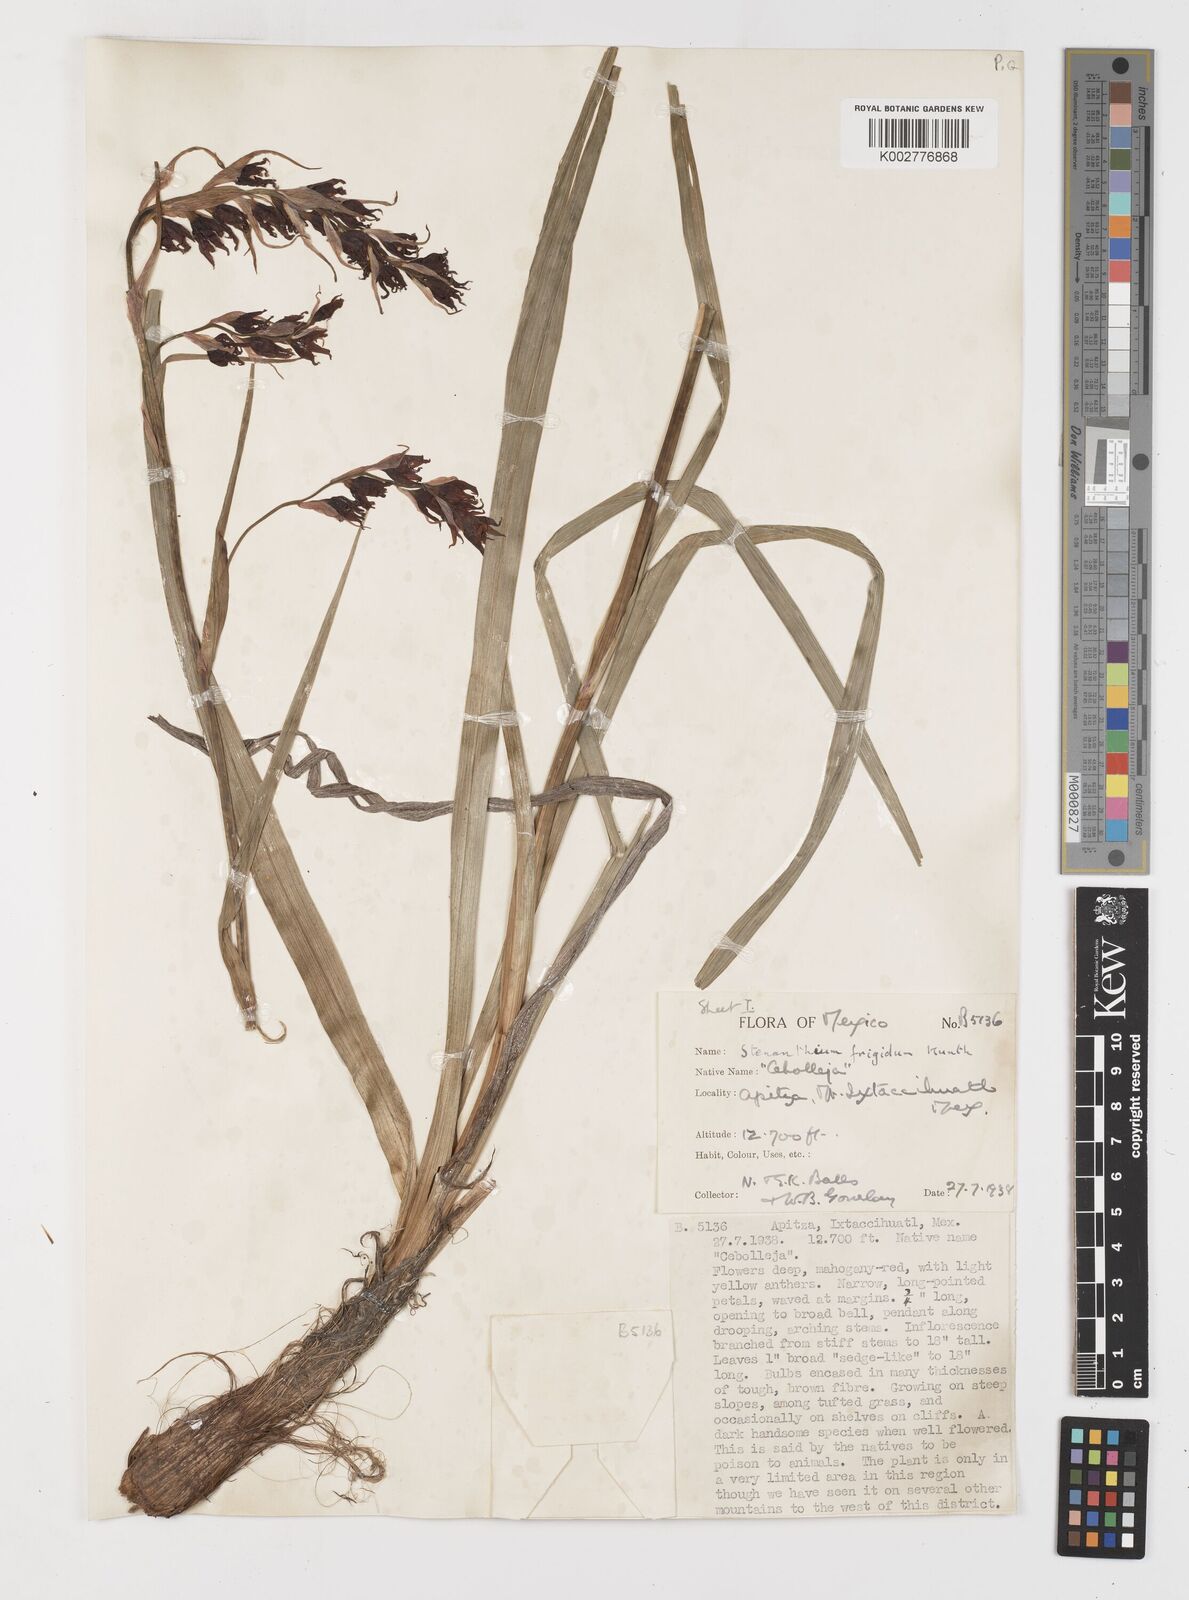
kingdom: Plantae
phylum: Tracheophyta
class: Liliopsida
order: Liliales
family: Melanthiaceae
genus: Anticlea
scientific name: Anticlea frigida
